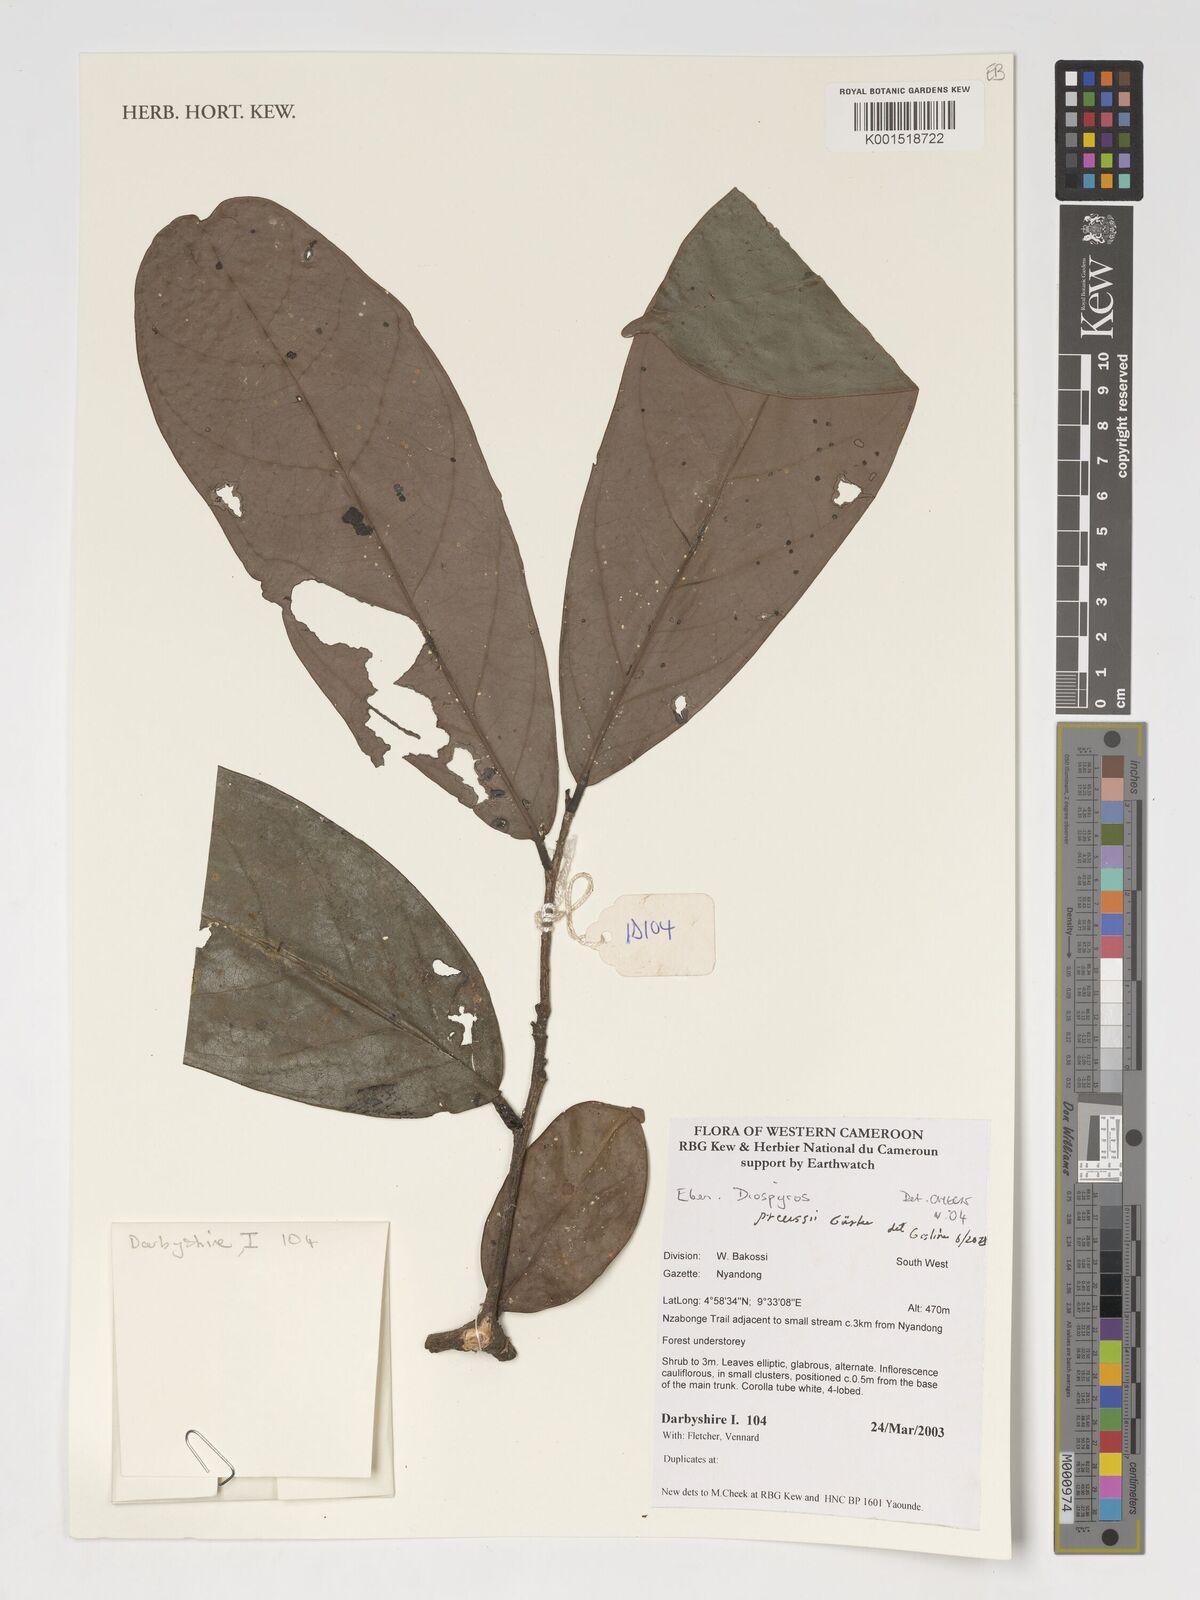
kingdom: Plantae
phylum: Tracheophyta
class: Magnoliopsida
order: Ericales
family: Ebenaceae
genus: Diospyros
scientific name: Diospyros preussii
